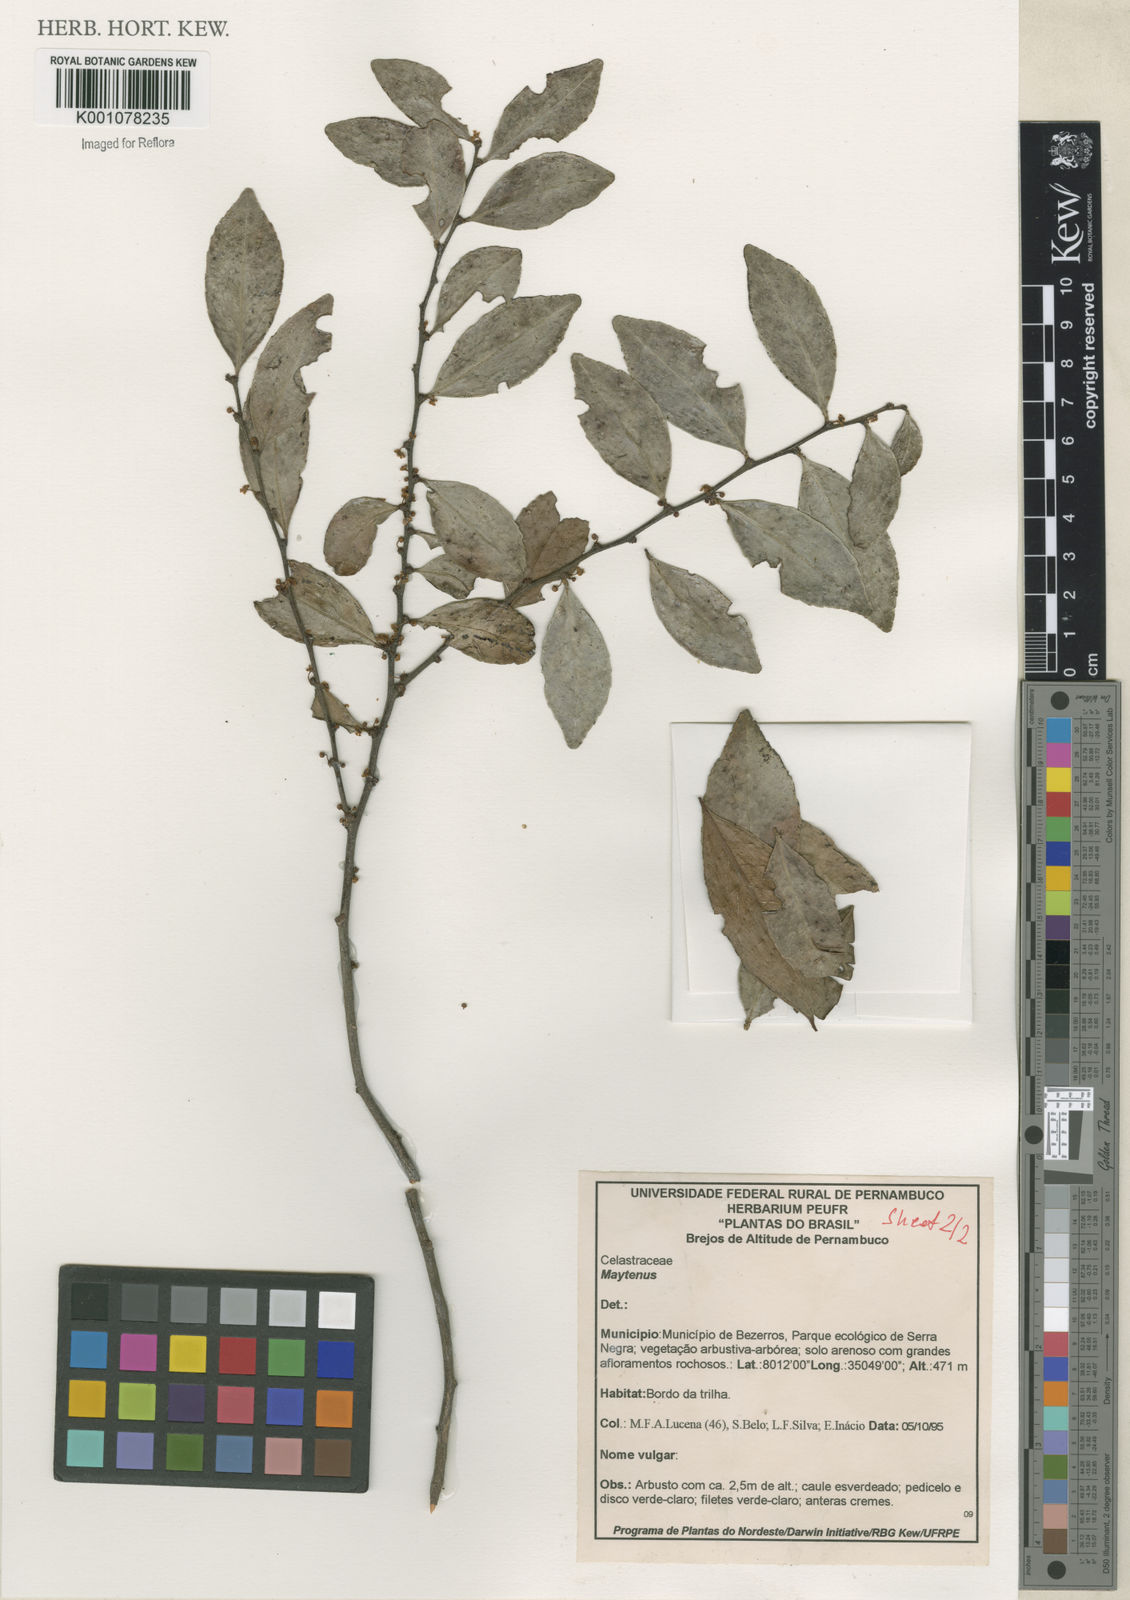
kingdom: Plantae
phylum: Tracheophyta
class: Magnoliopsida
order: Celastrales
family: Celastraceae
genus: Maytenus
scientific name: Maytenus
